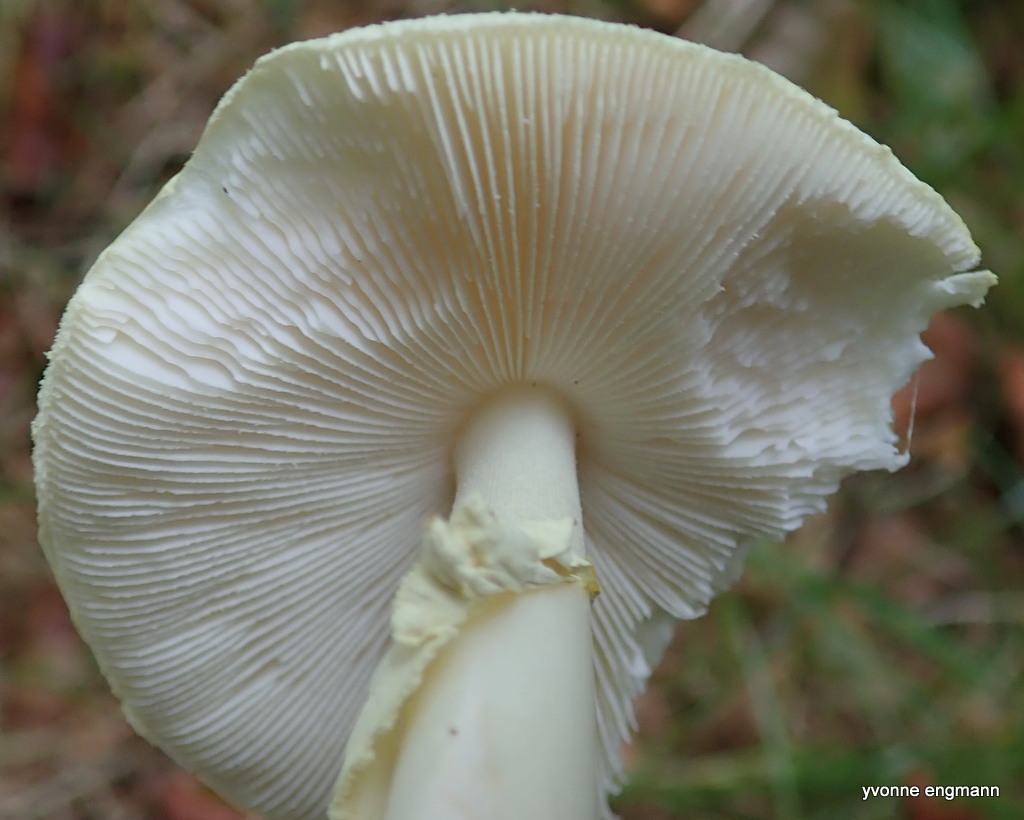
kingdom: Fungi
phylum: Basidiomycota
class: Agaricomycetes
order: Agaricales
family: Amanitaceae
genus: Amanita
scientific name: Amanita citrina
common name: kugleknoldet fluesvamp
